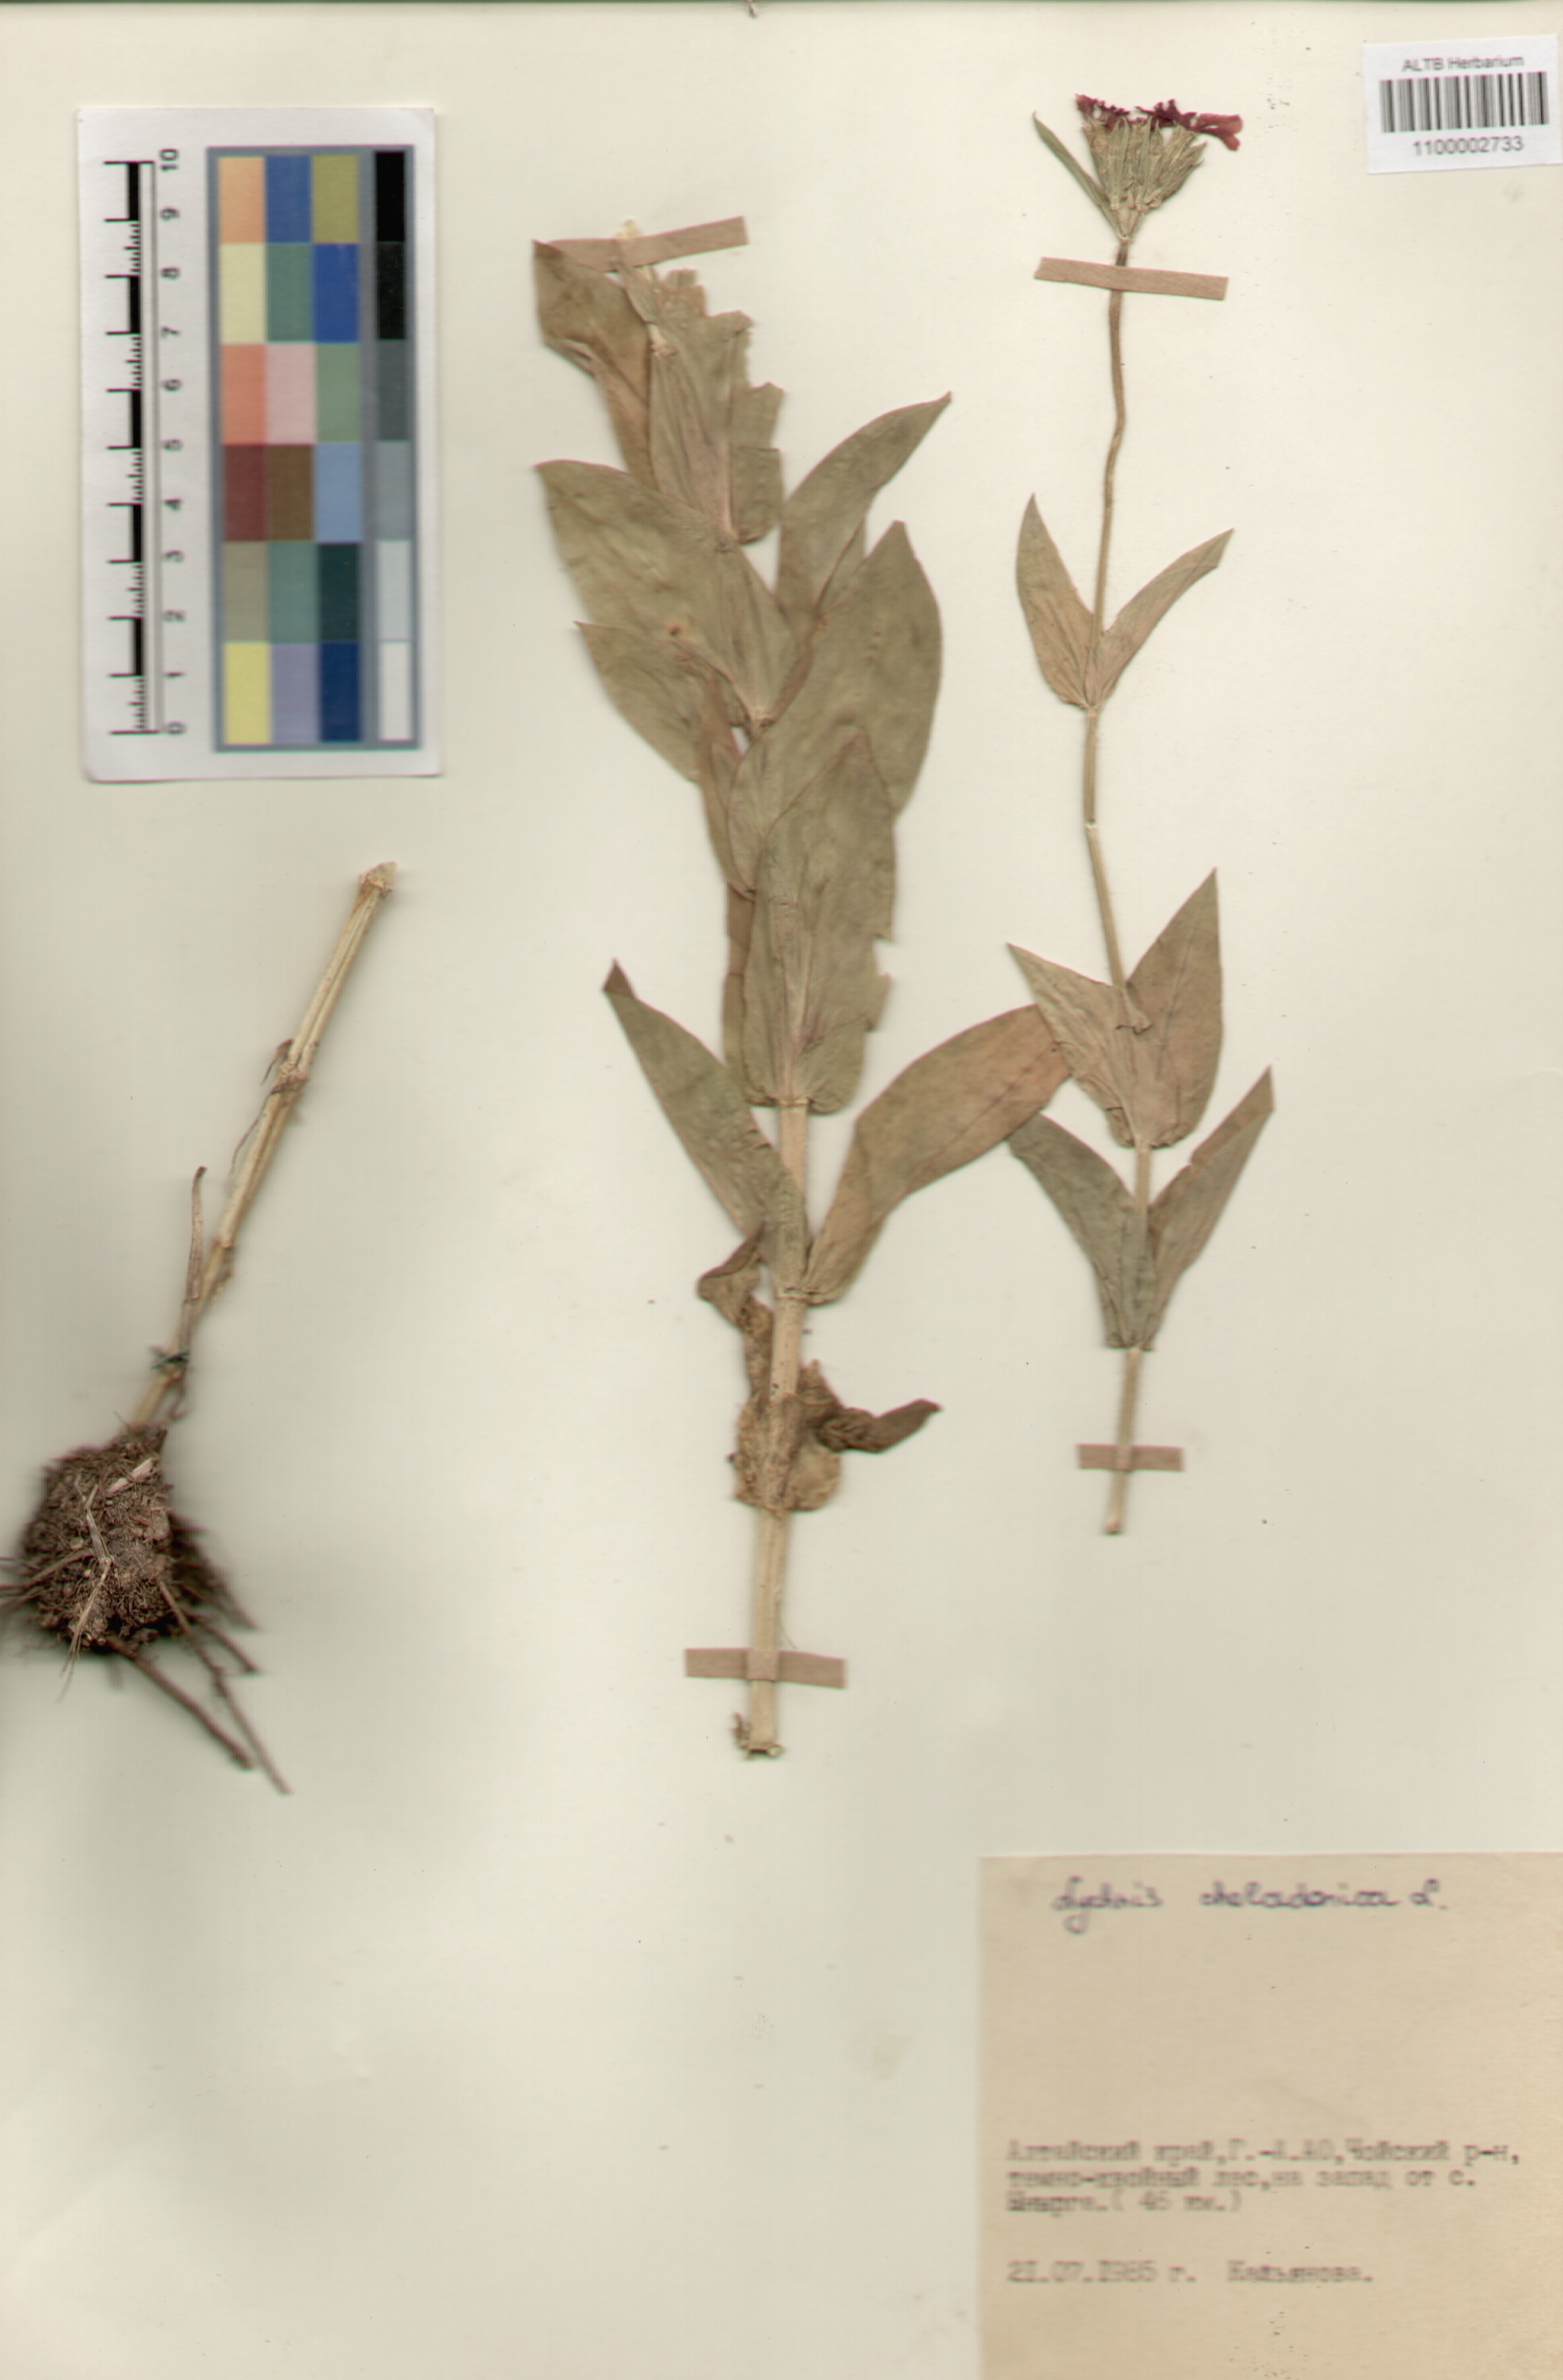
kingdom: Plantae
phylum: Tracheophyta
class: Magnoliopsida
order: Caryophyllales
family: Caryophyllaceae
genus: Silene
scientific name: Silene chalcedonica
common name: Maltese-cross
